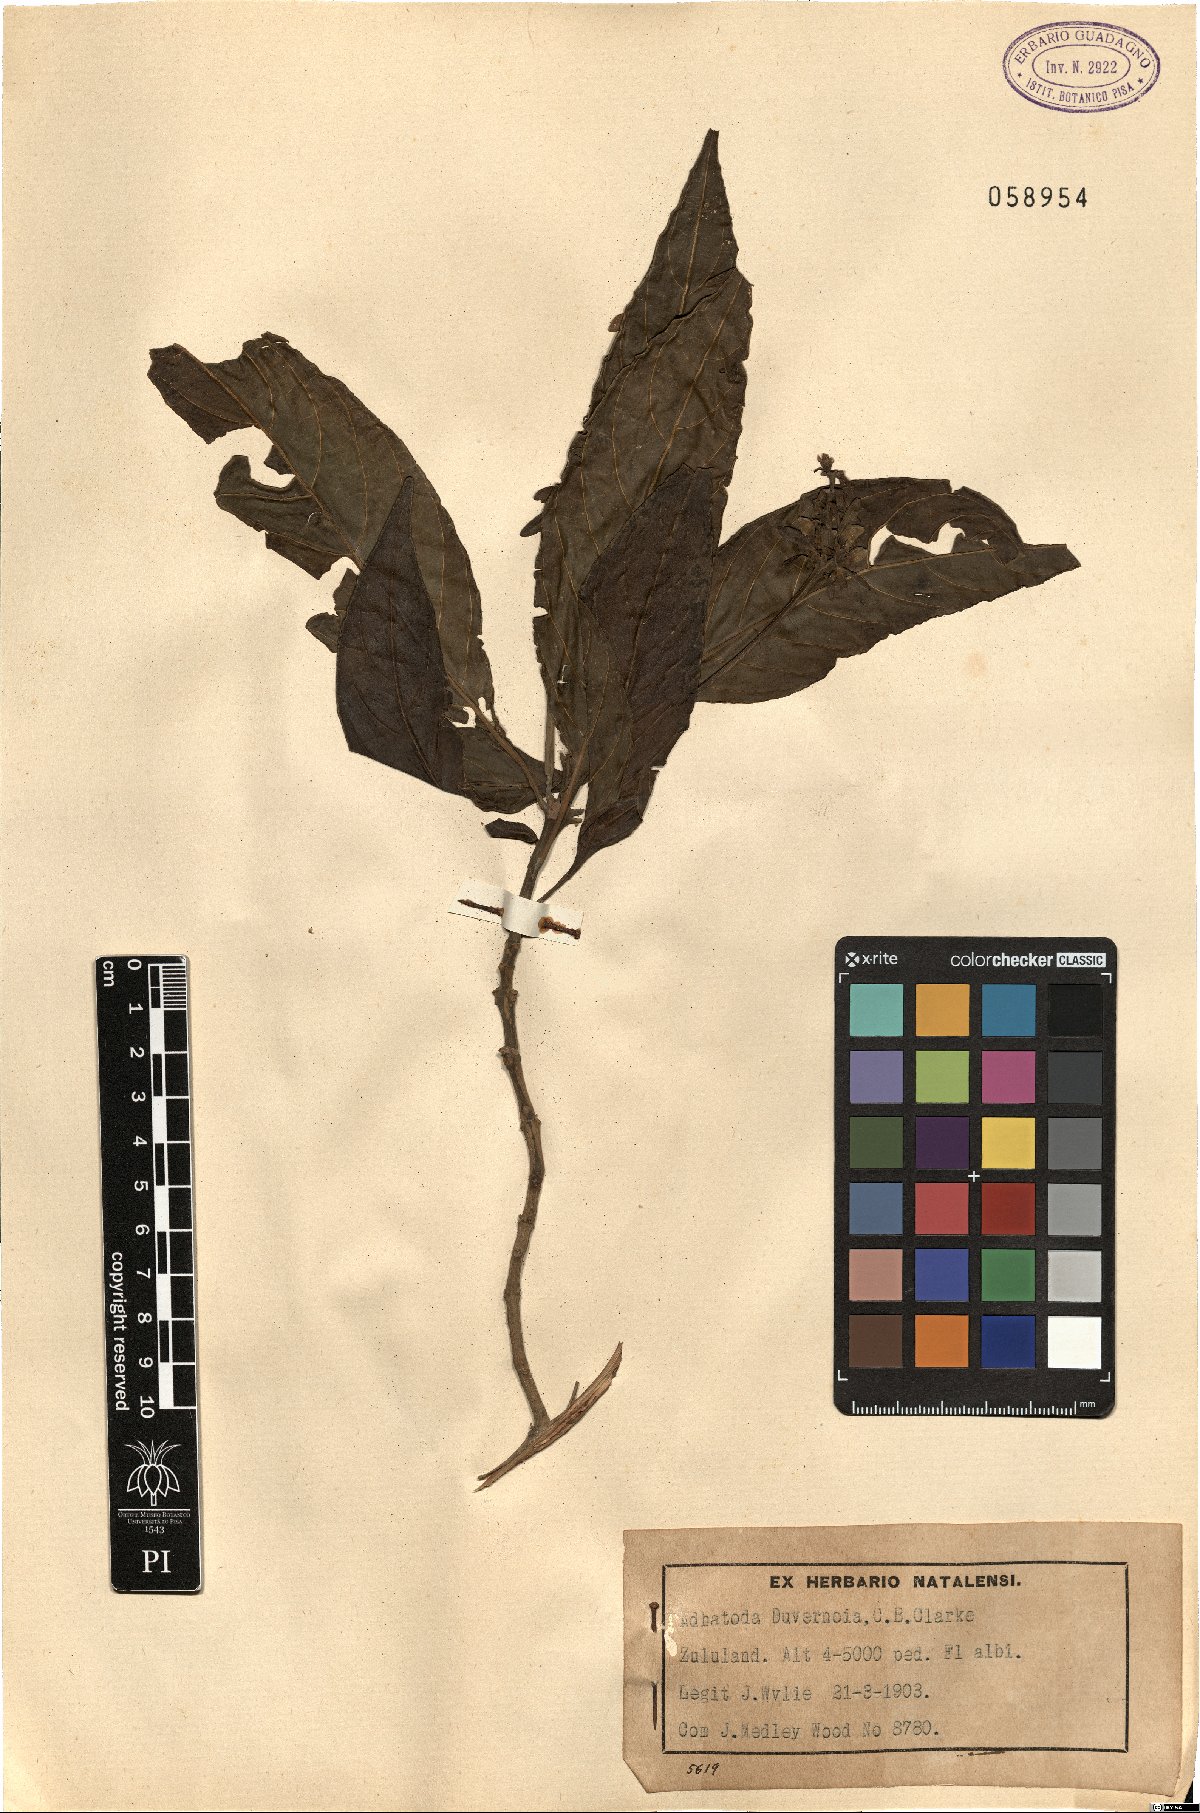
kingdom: Plantae
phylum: Tracheophyta
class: Magnoliopsida
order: Lamiales
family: Acanthaceae
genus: Justicia
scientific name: Justicia adhatodoides
